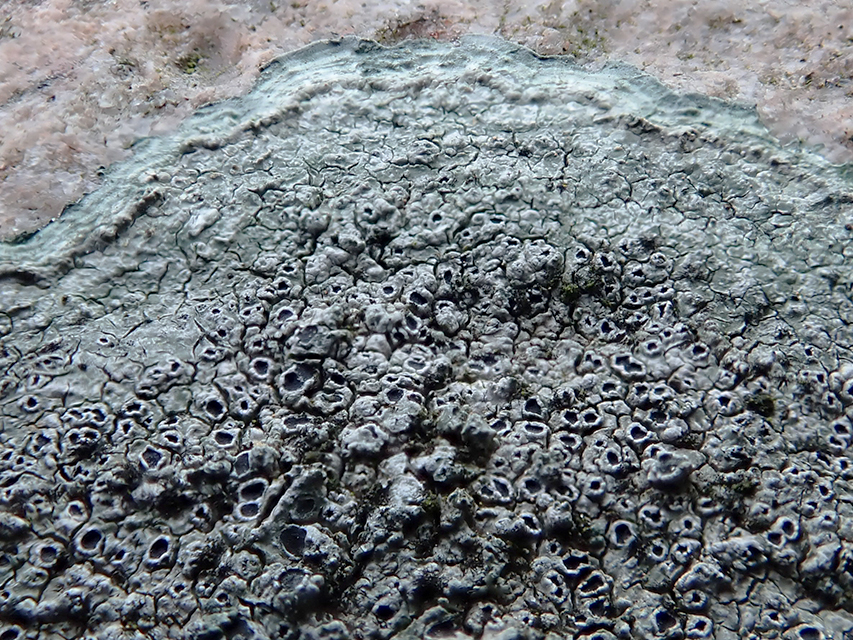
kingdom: Fungi
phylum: Ascomycota
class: Lecanoromycetes
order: Pertusariales
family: Megasporaceae
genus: Circinaria
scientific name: Circinaria caesiocinerea
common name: fuglestens-hulskivelav
